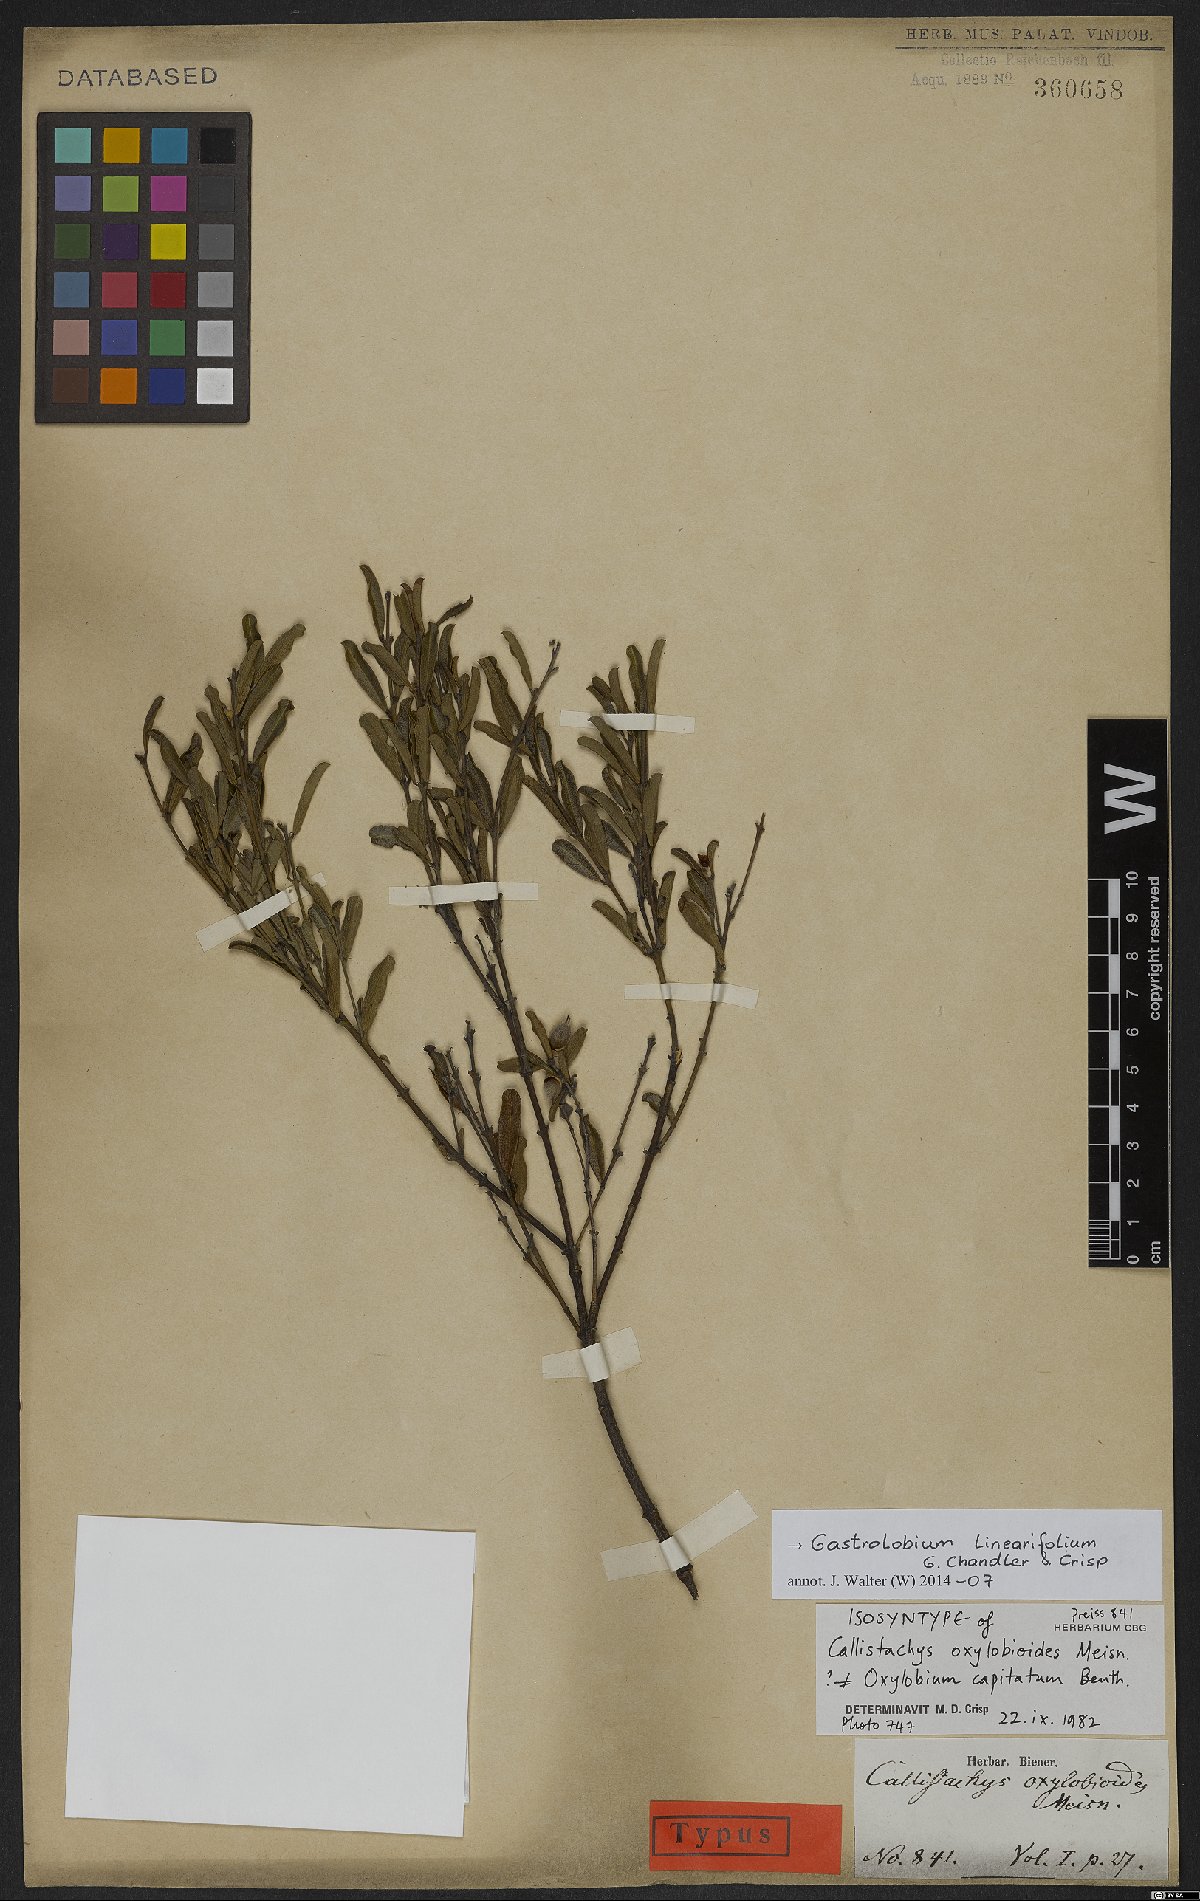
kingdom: Plantae
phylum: Tracheophyta
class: Magnoliopsida
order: Fabales
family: Fabaceae
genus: Gastrolobium
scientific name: Gastrolobium linearifolium
